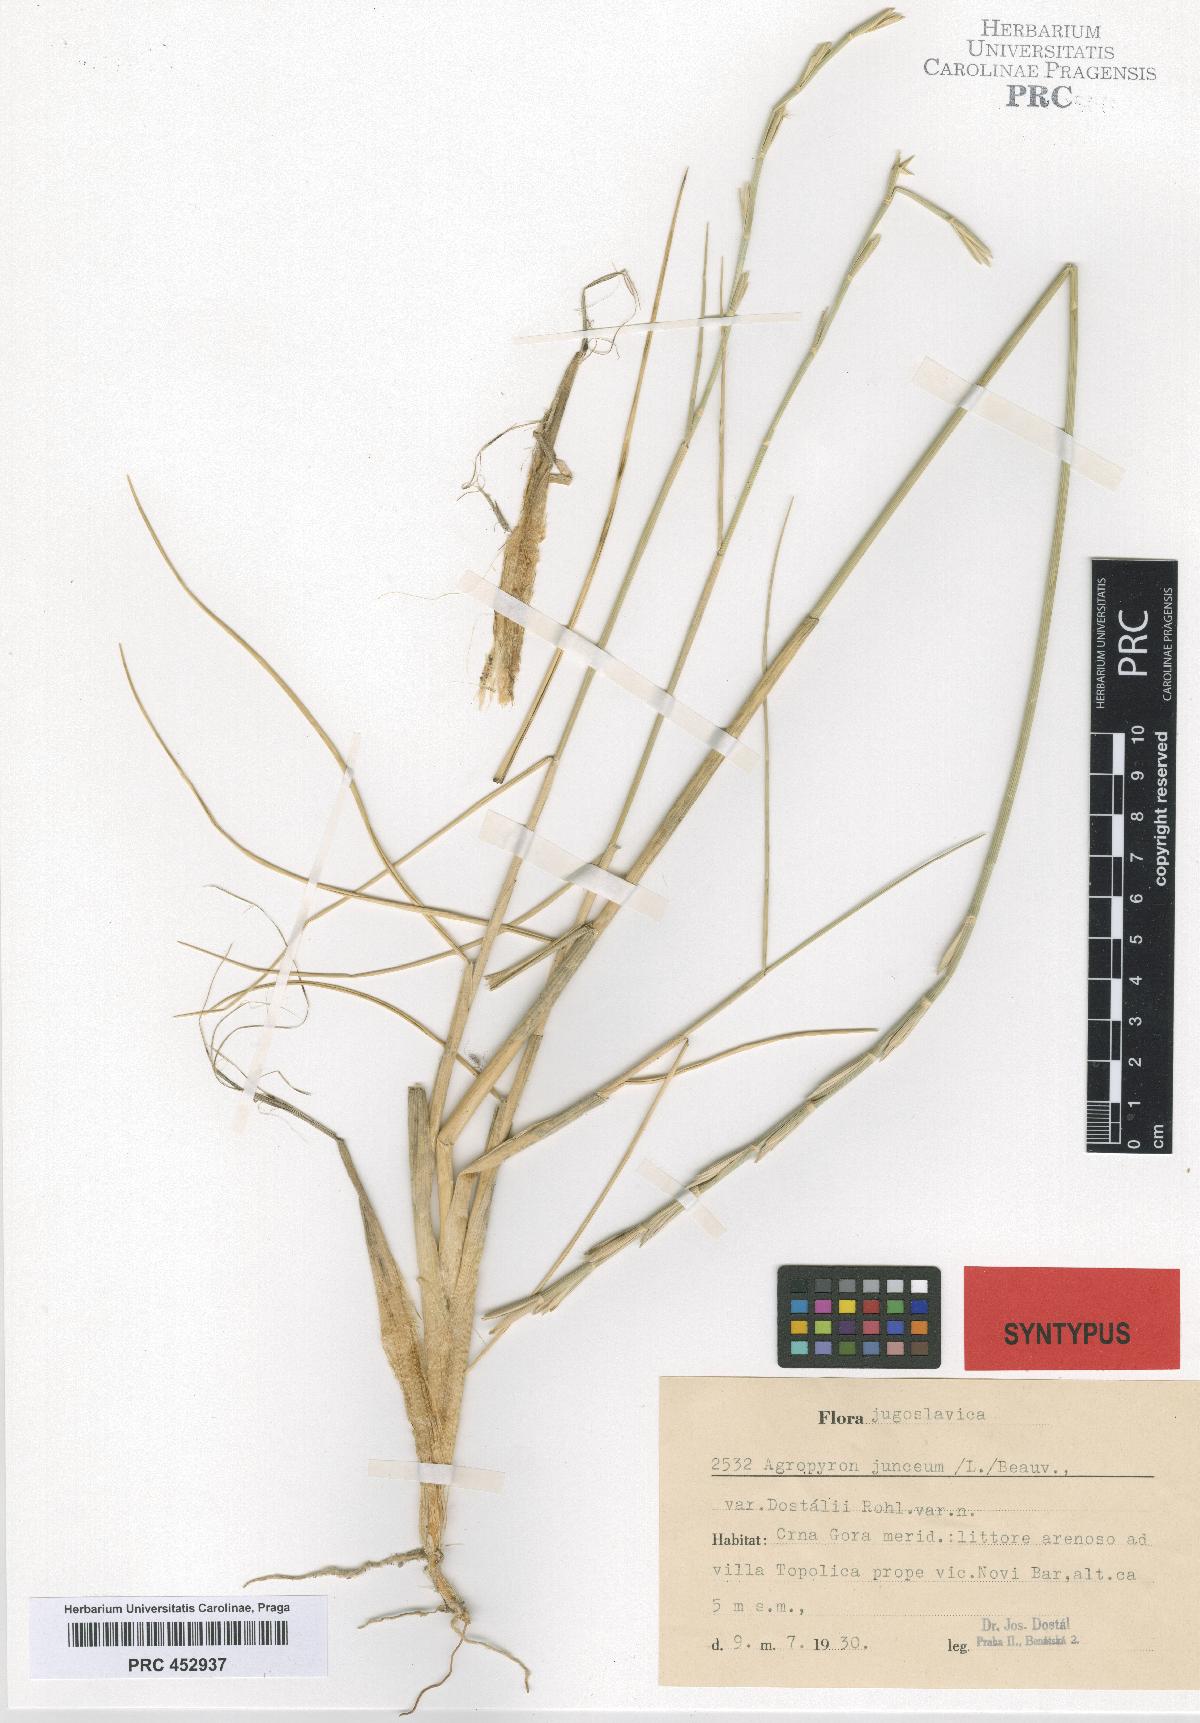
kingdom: Plantae
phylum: Tracheophyta
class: Liliopsida
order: Poales
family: Poaceae
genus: Thinopyrum
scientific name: Thinopyrum junceum
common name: Russian wheatgrass
